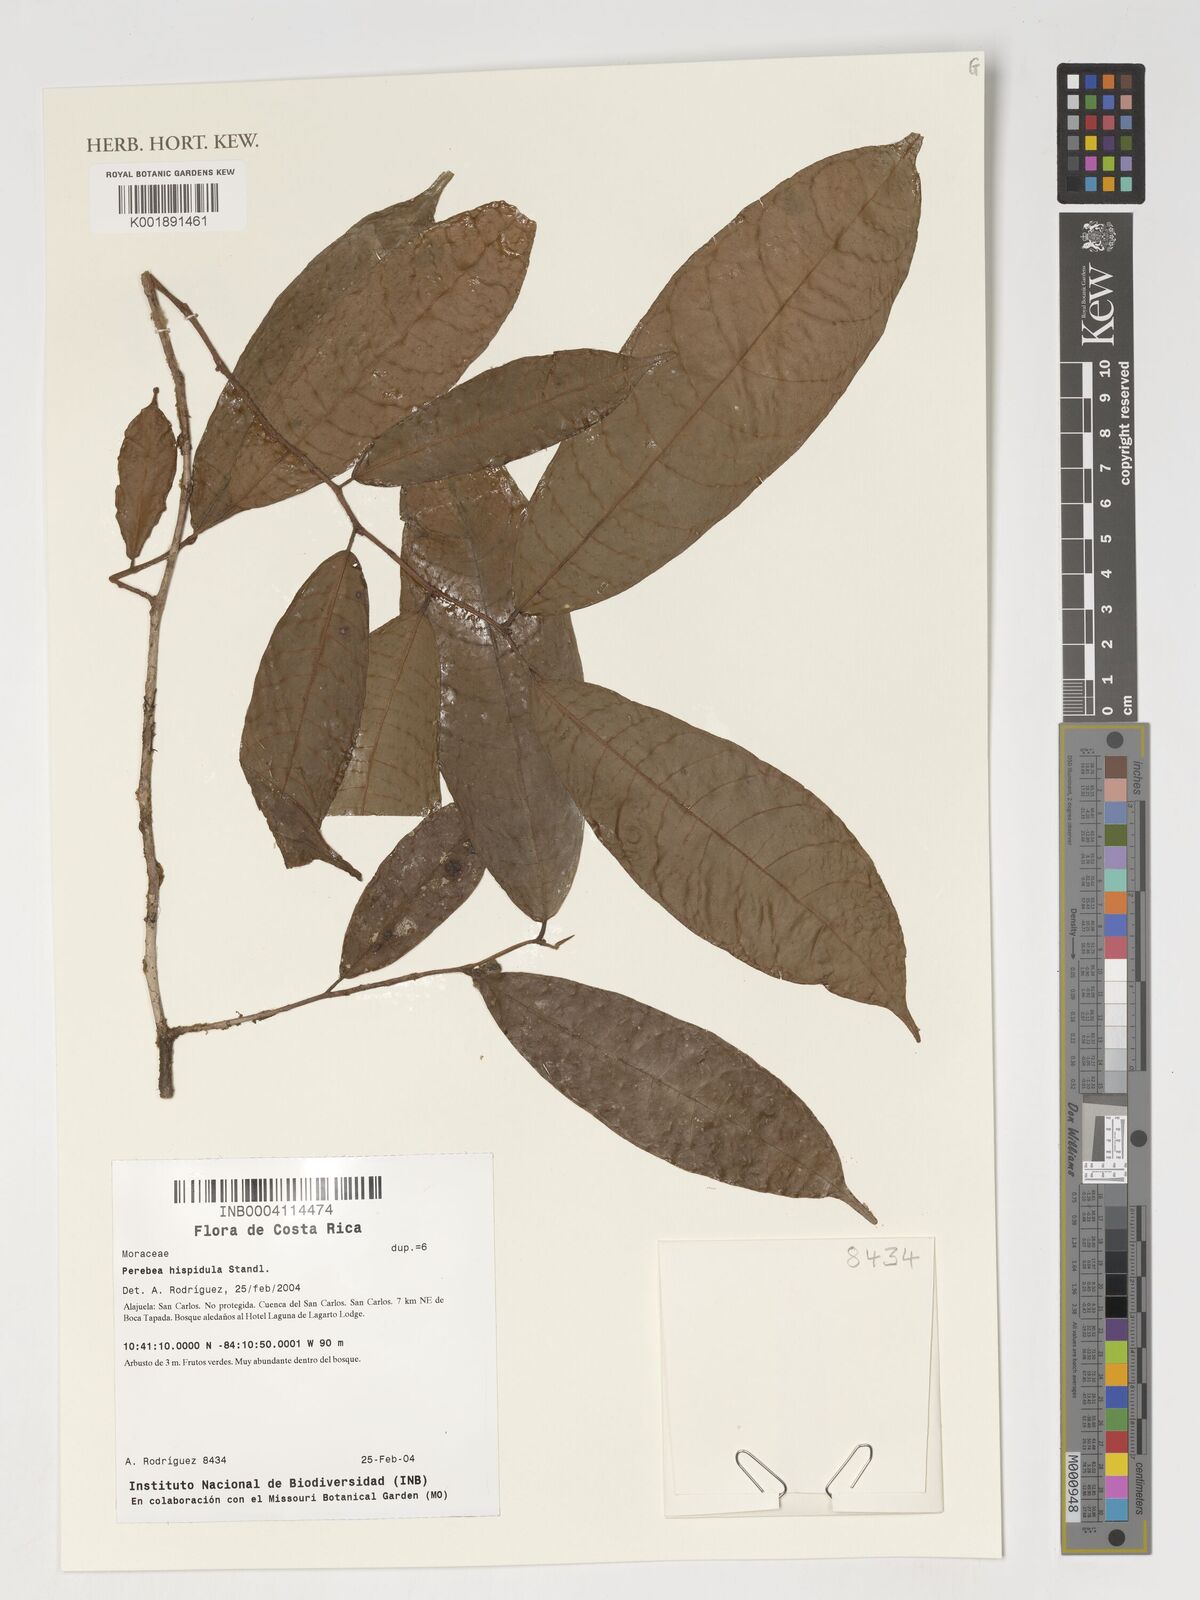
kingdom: Plantae
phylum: Tracheophyta
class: Magnoliopsida
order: Rosales
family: Moraceae
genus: Perebea
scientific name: Perebea xanthochyma
